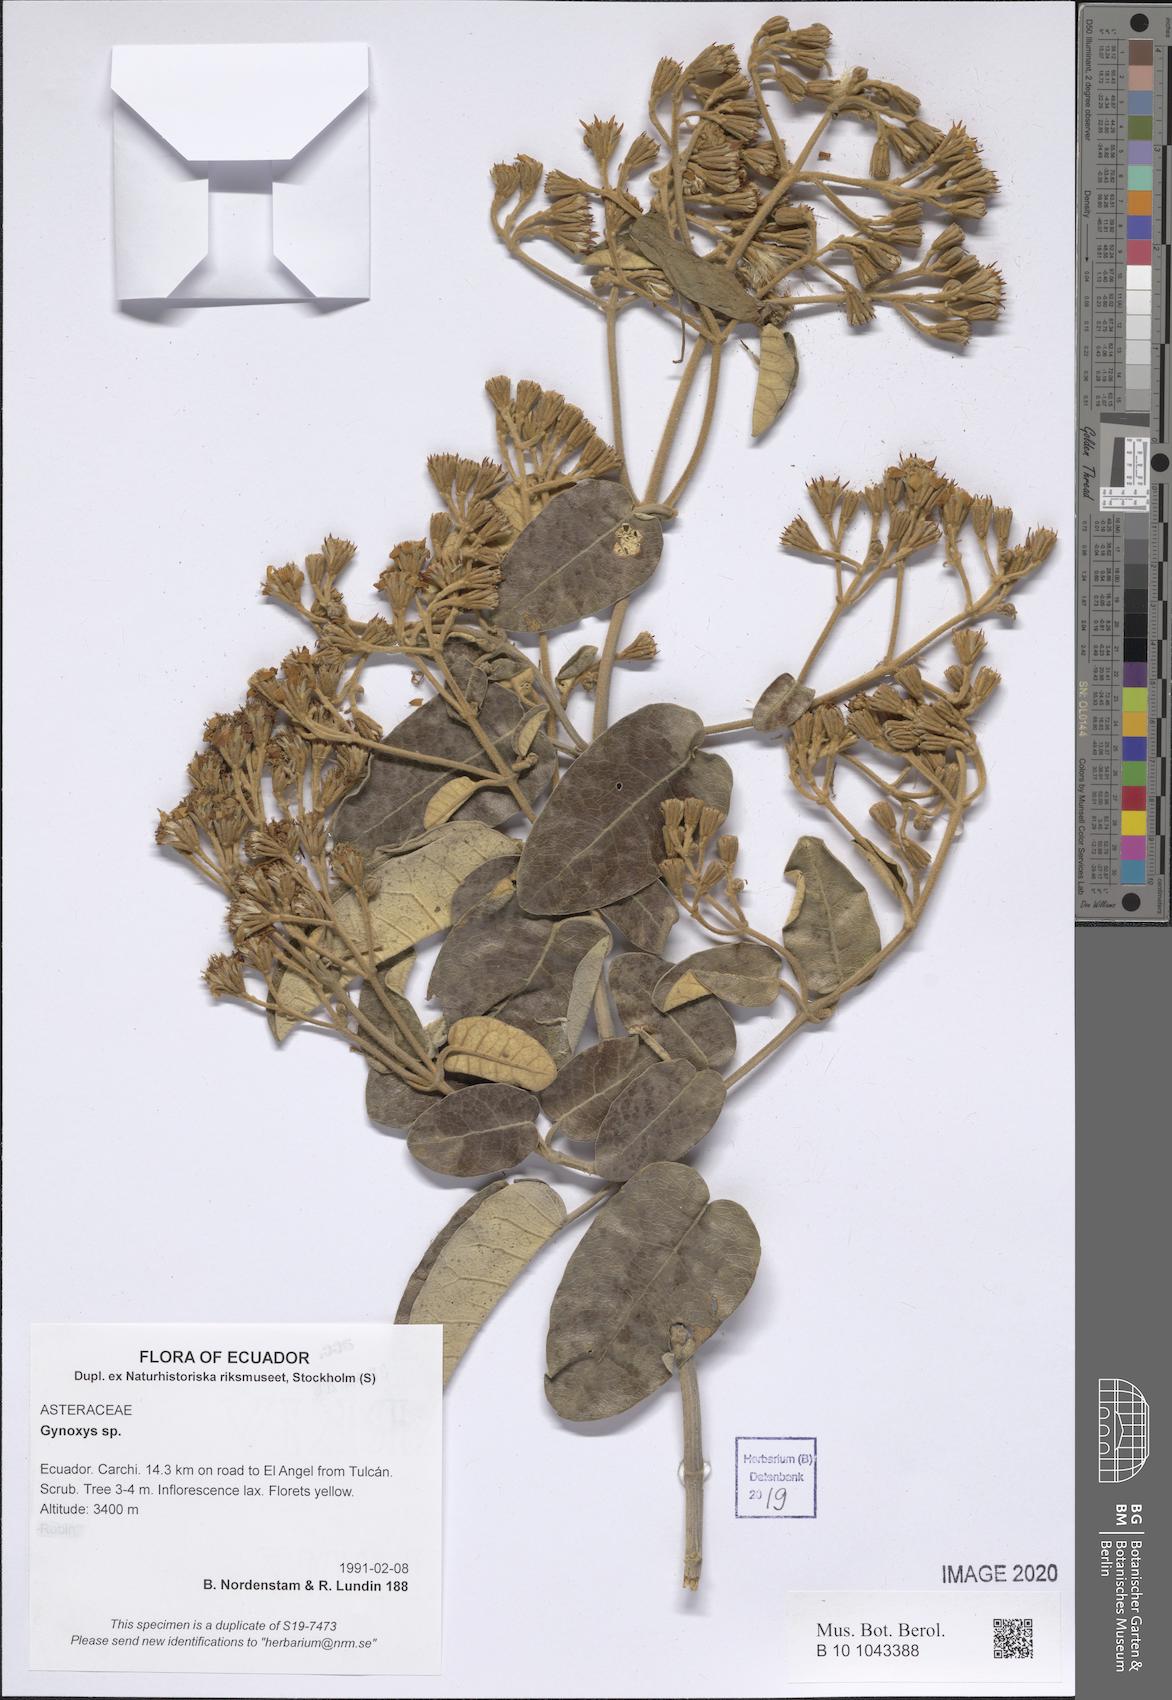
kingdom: Plantae
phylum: Tracheophyta
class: Magnoliopsida
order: Asterales
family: Asteraceae
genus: Gynoxys
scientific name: Gynoxys
